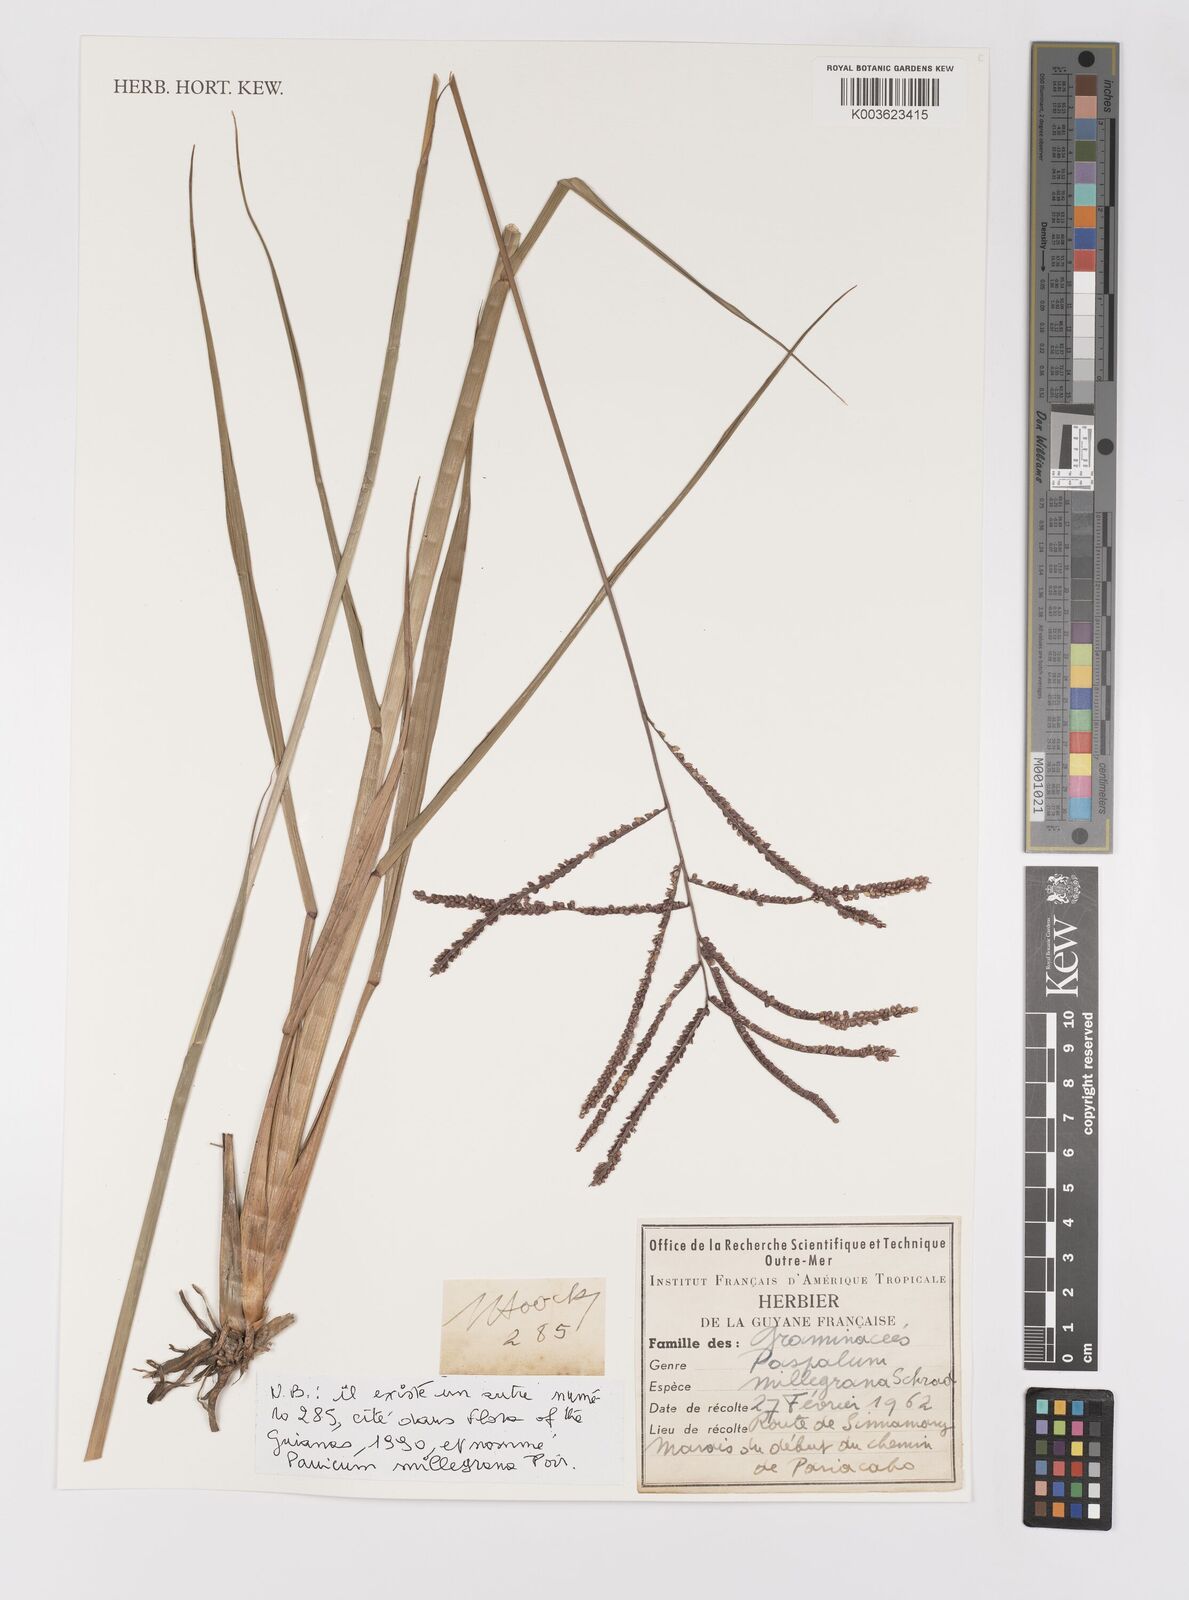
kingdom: Plantae
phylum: Tracheophyta
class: Liliopsida
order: Poales
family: Poaceae
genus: Paspalum
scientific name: Paspalum millegranum
